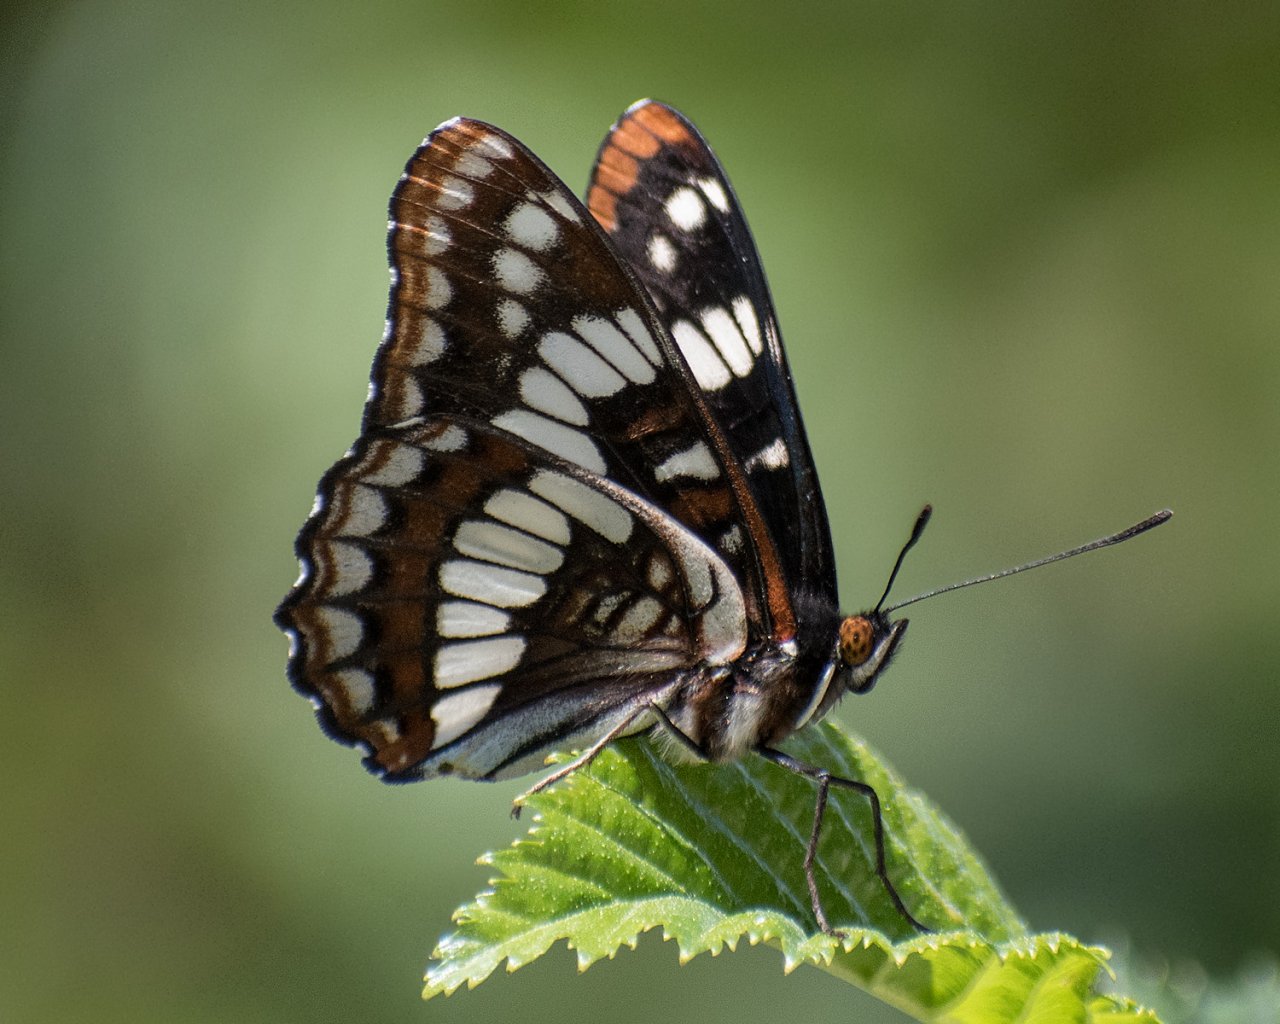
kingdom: Animalia
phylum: Arthropoda
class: Insecta
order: Lepidoptera
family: Nymphalidae
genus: Limenitis
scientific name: Limenitis lorquini
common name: Lorquin's Admiral
